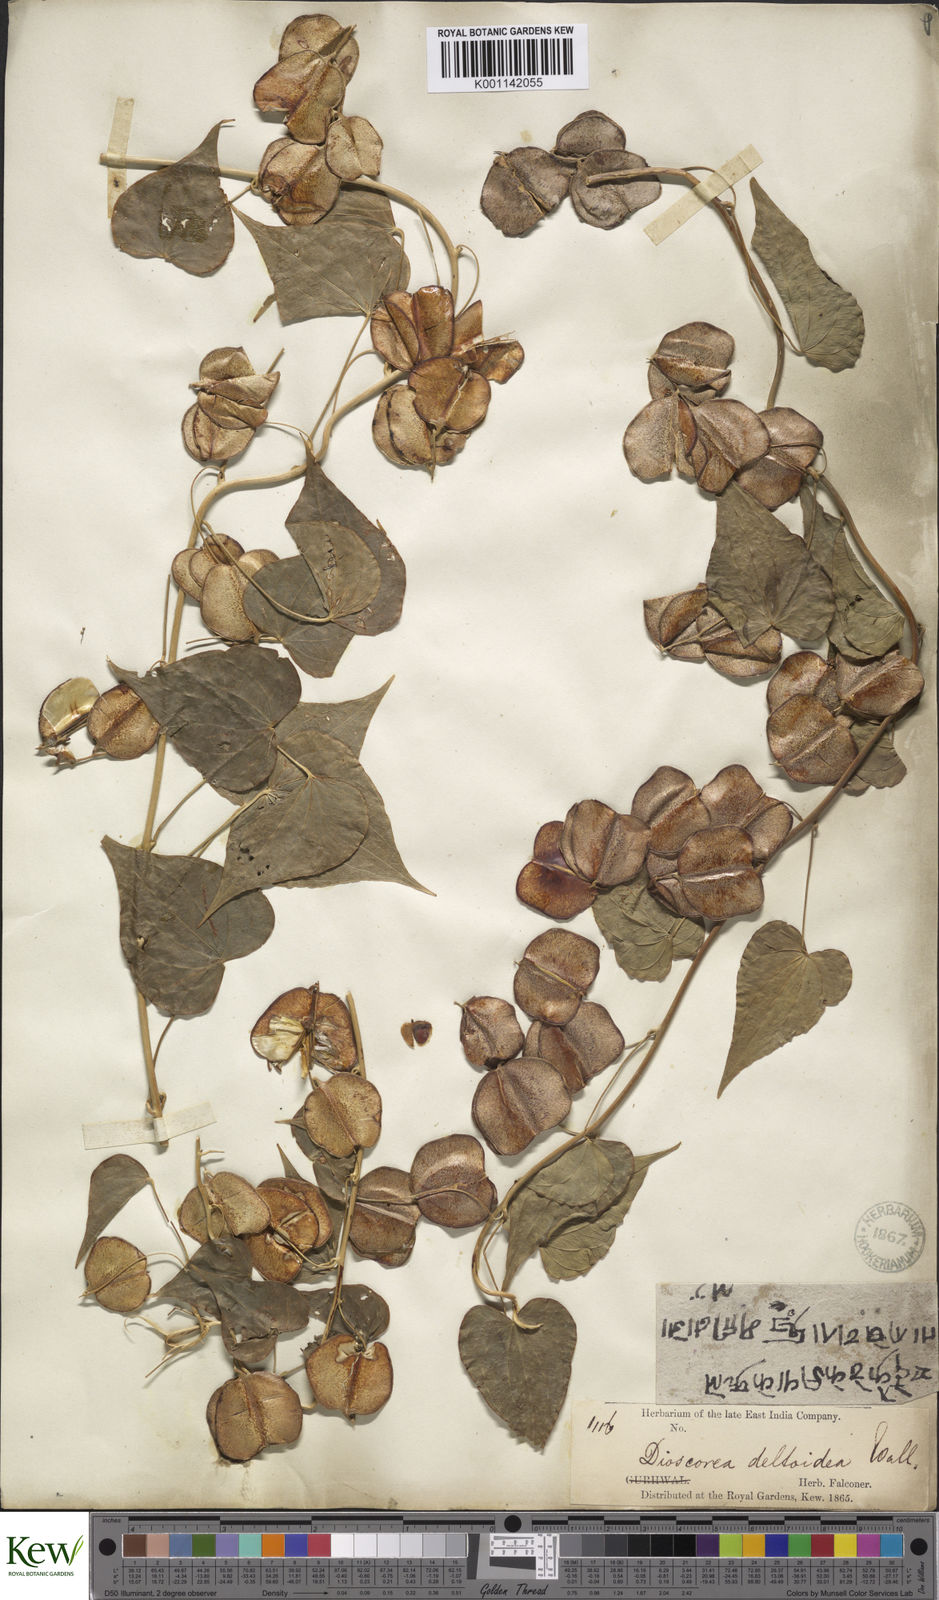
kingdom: Plantae
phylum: Tracheophyta
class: Liliopsida
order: Dioscoreales
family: Dioscoreaceae
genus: Dioscorea
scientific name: Dioscorea deltoidea
